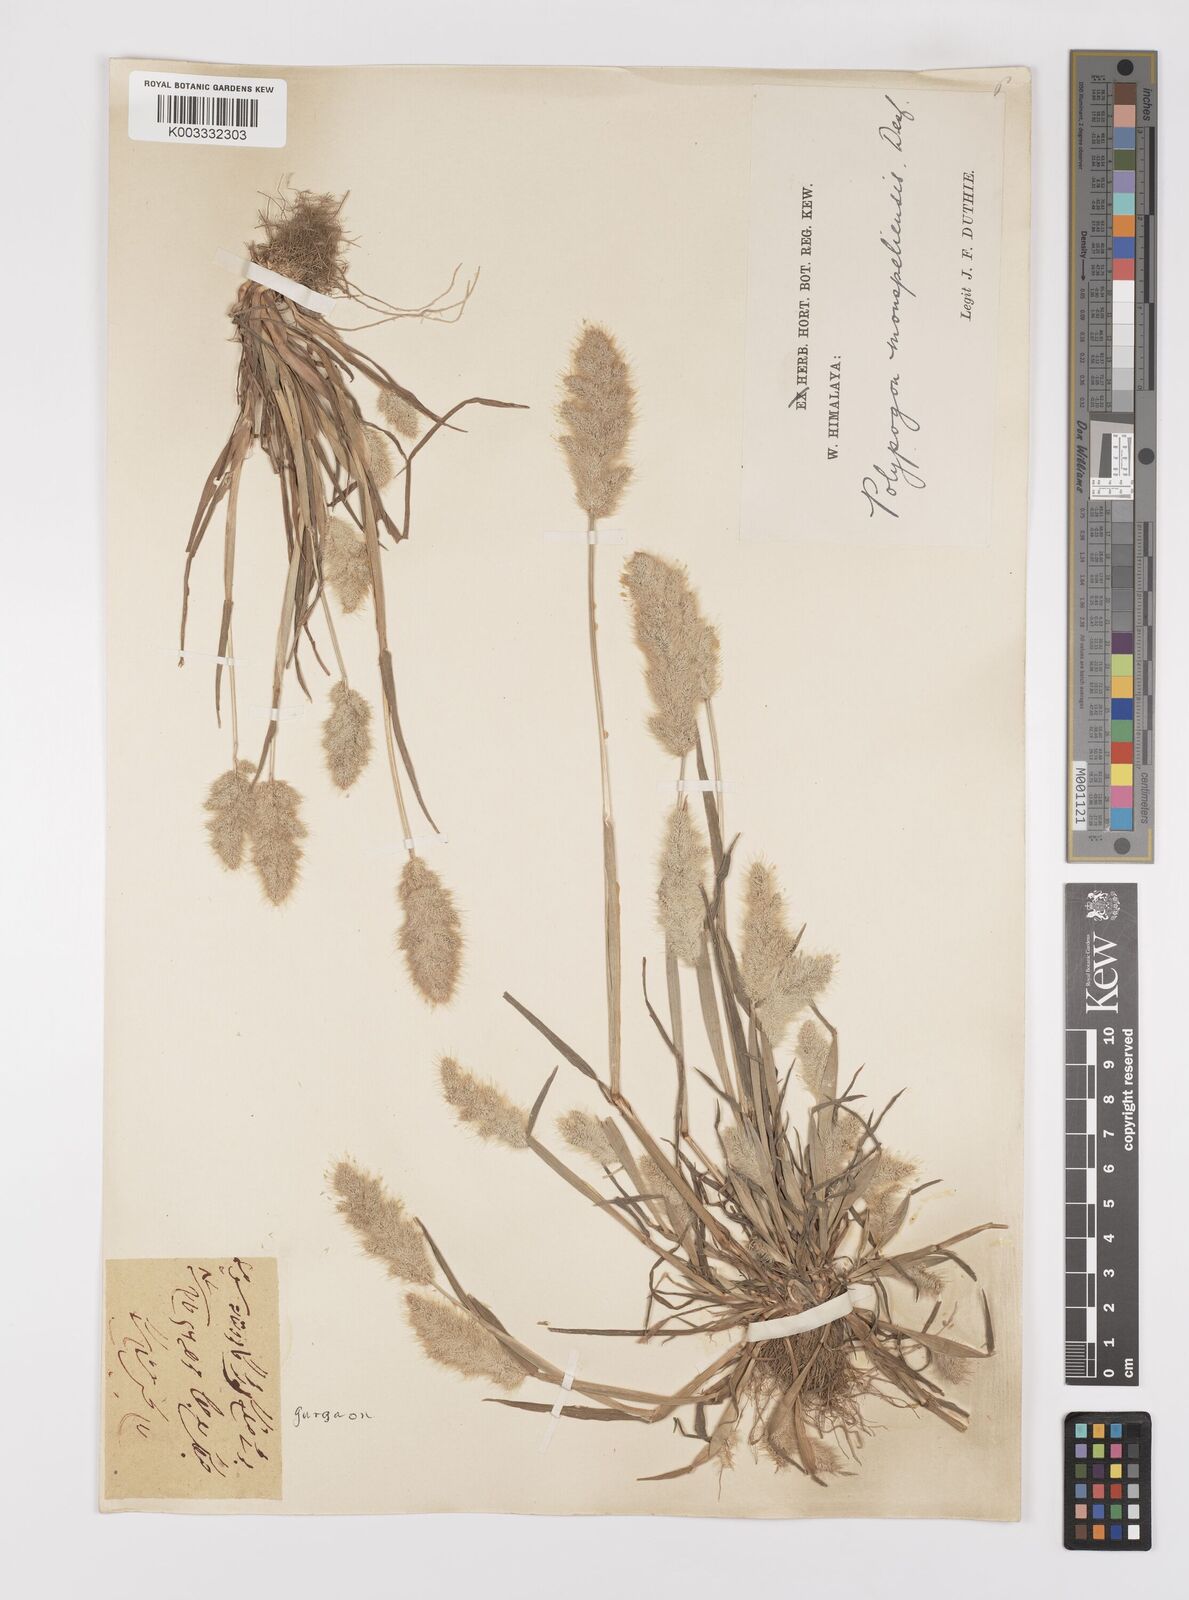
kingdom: Plantae
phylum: Tracheophyta
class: Liliopsida
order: Poales
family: Poaceae
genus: Polypogon
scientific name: Polypogon monspeliensis
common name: Annual rabbitsfoot grass
